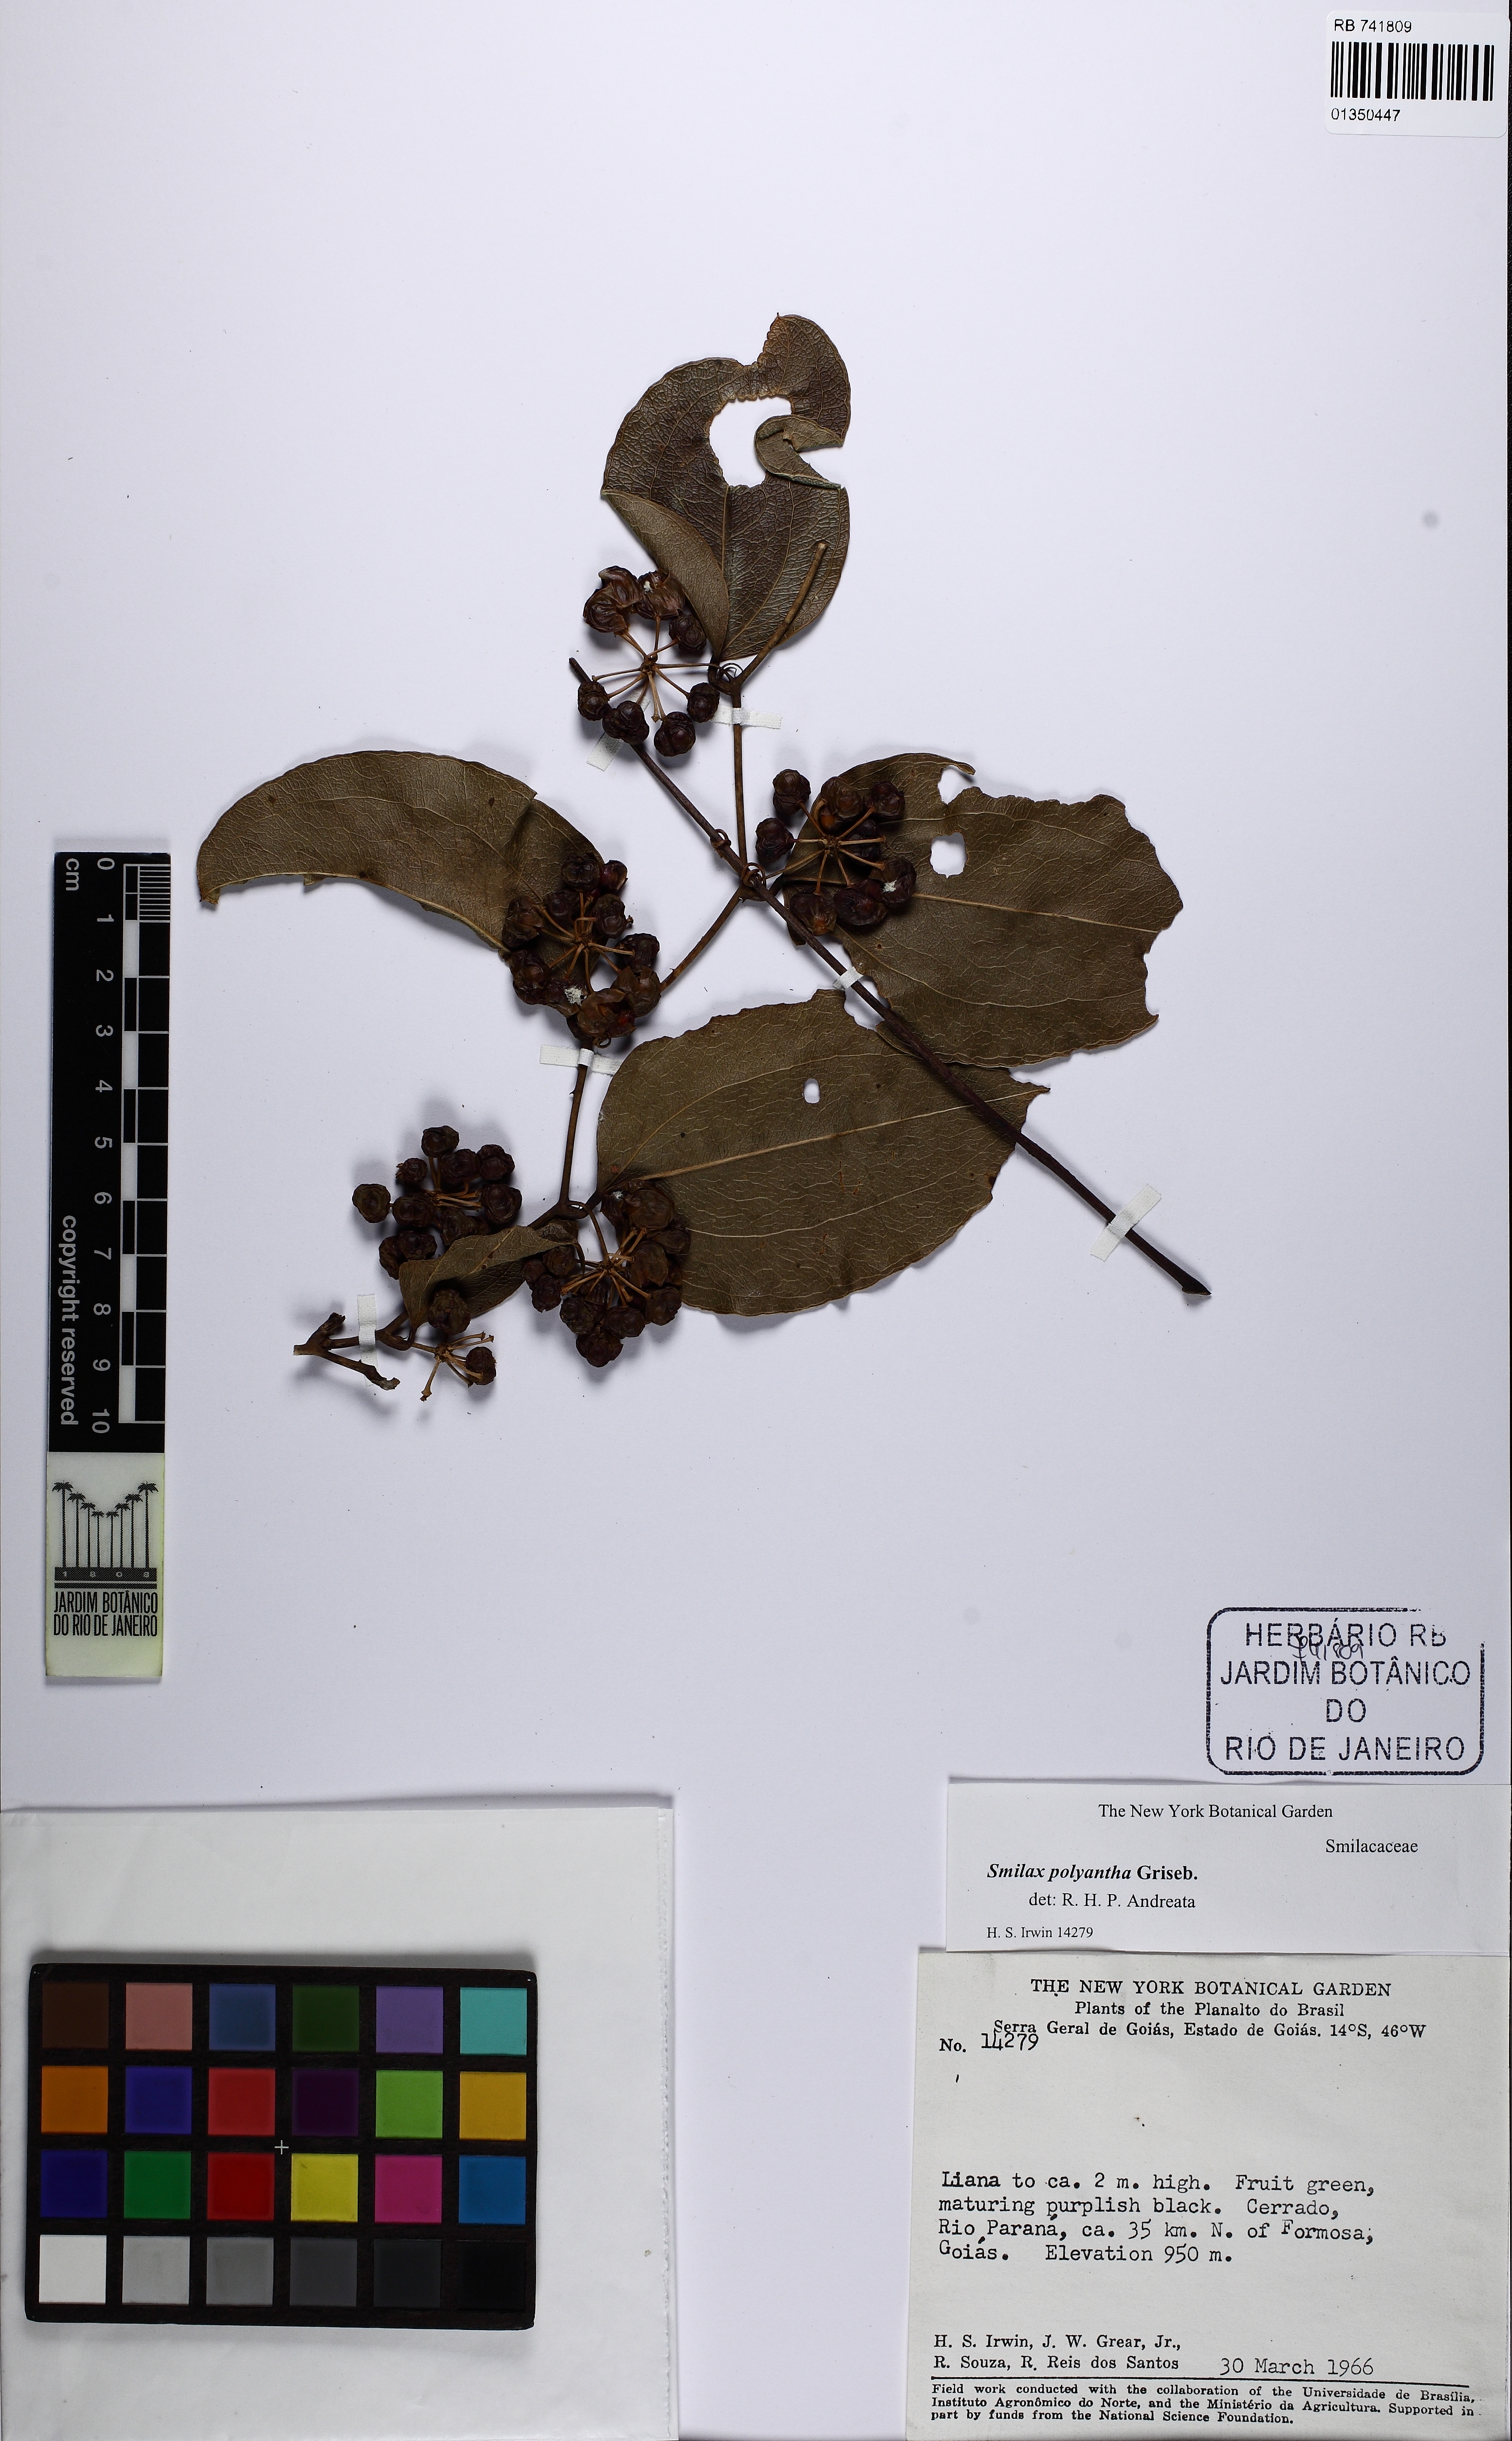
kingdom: Plantae
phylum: Tracheophyta
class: Liliopsida
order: Liliales
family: Smilacaceae
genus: Smilax
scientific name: Smilax polyantha
